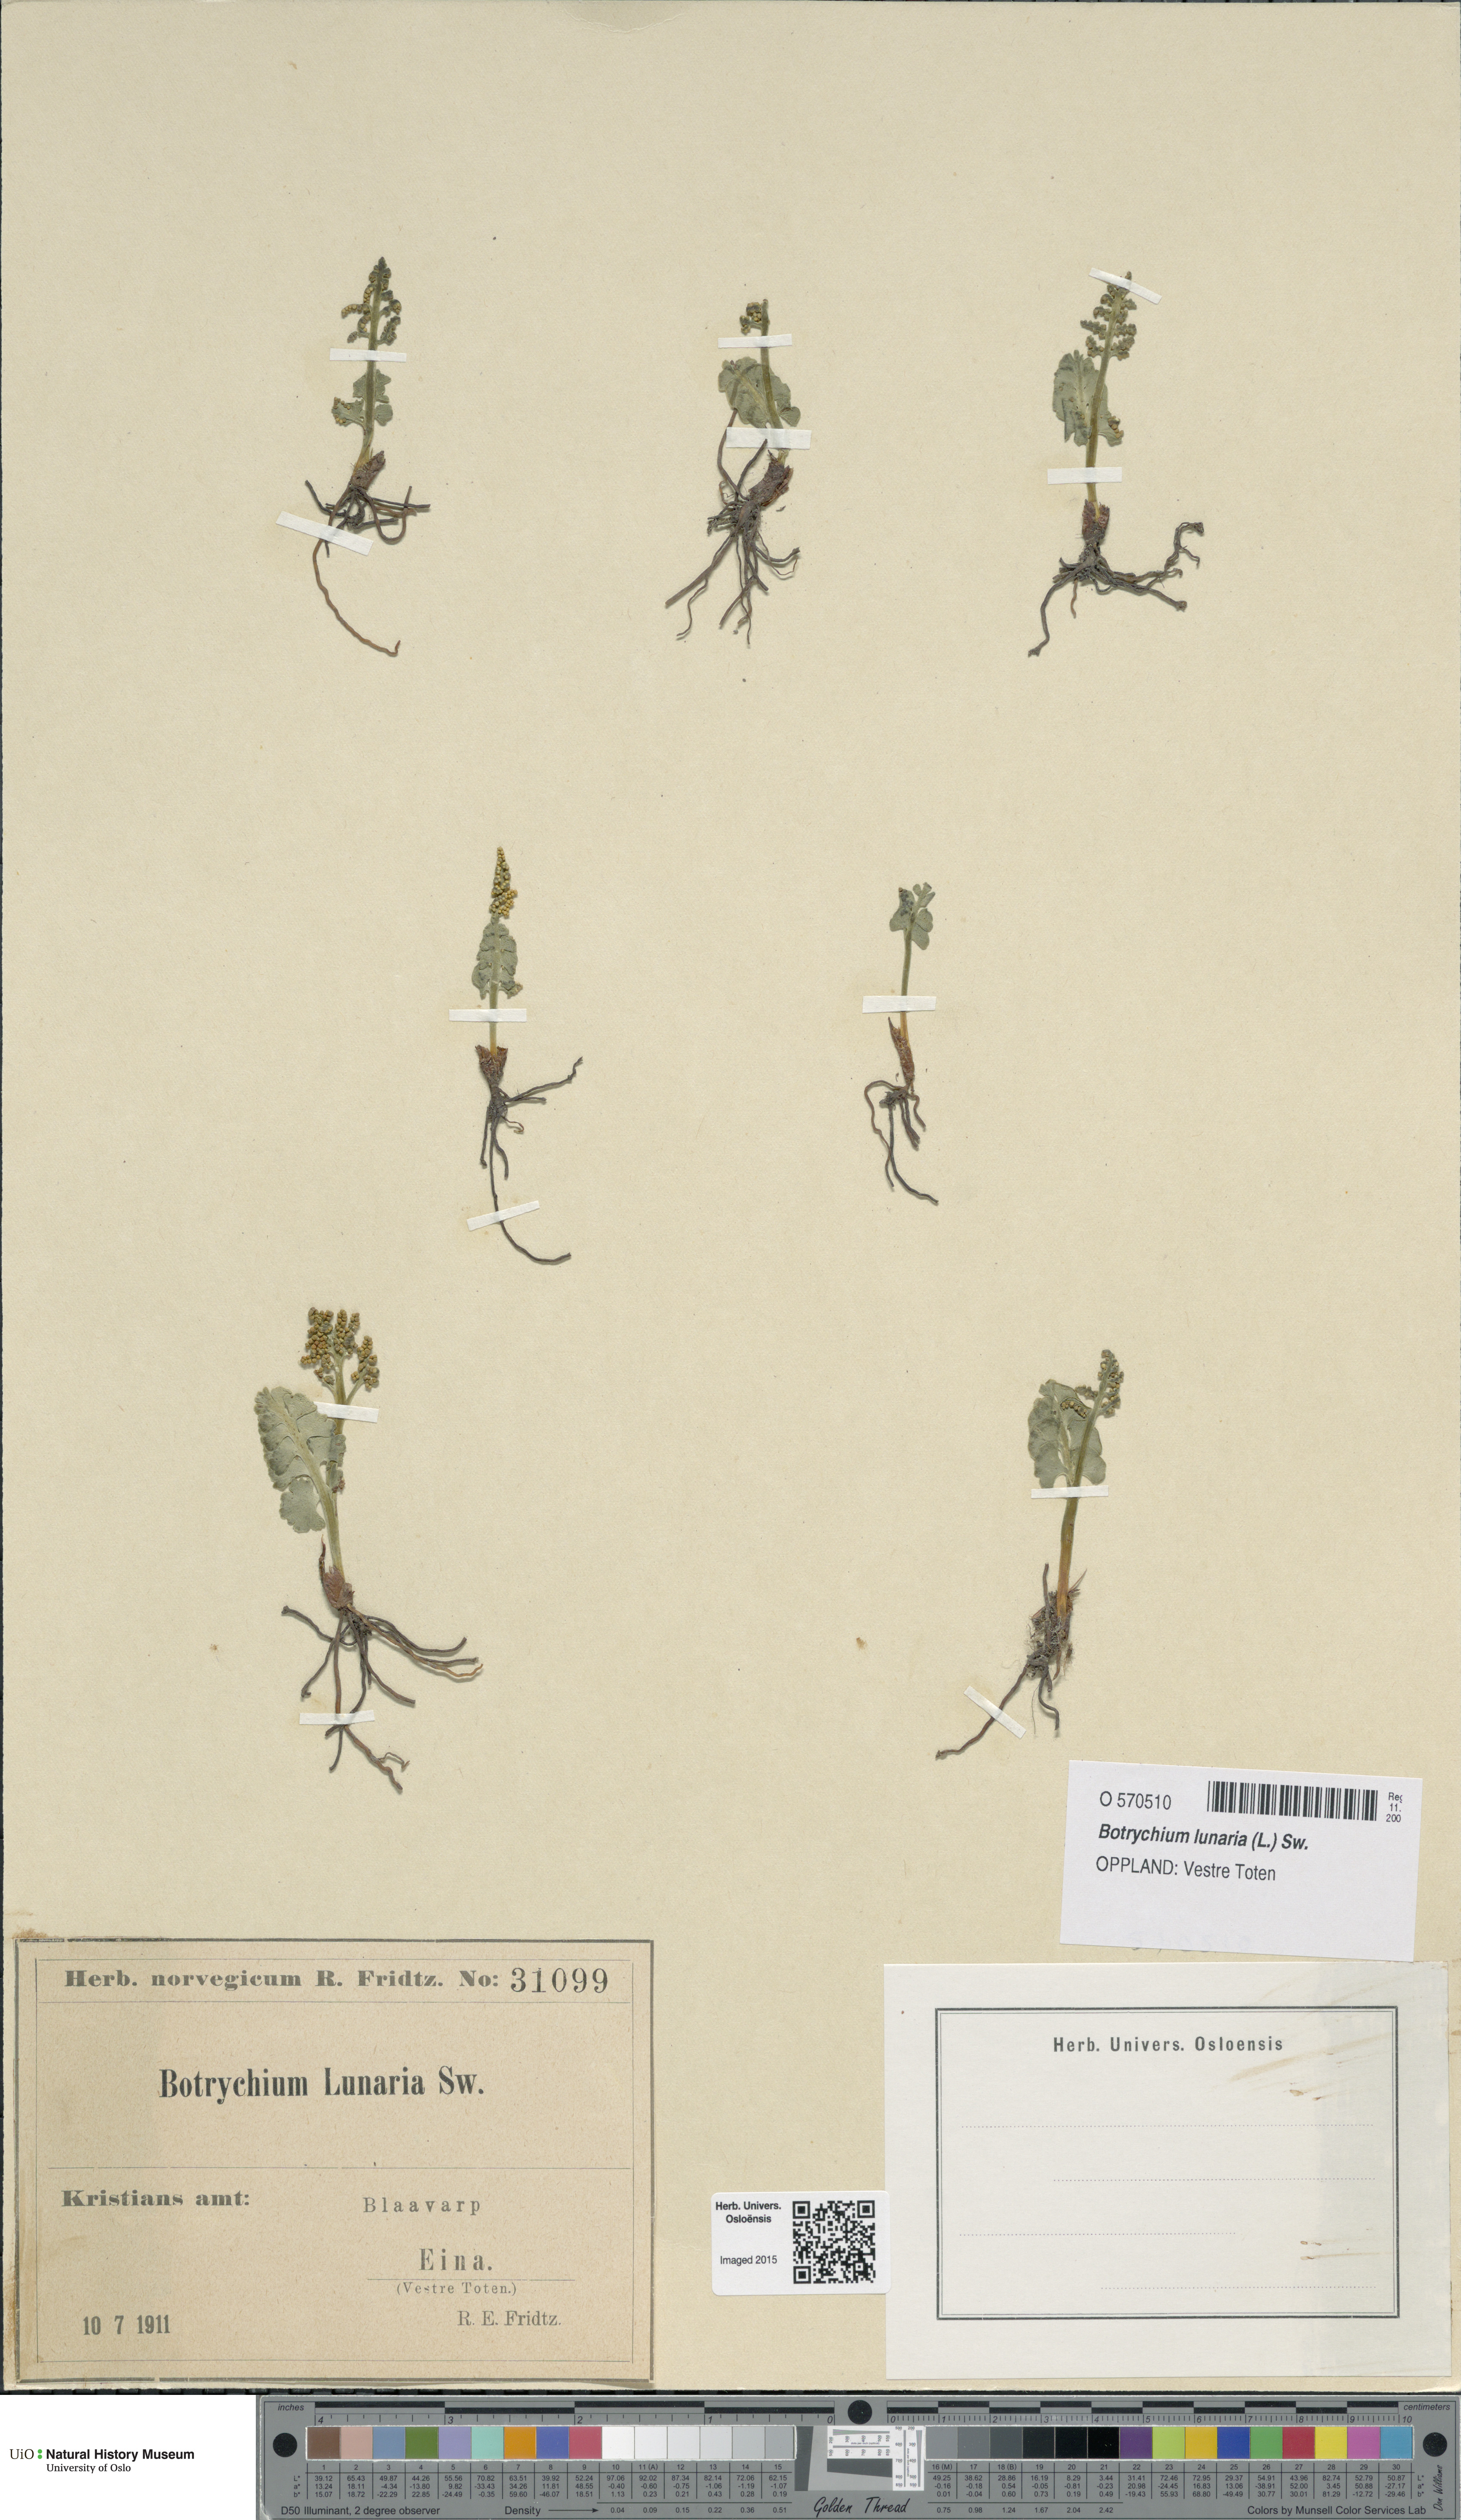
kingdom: Plantae
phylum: Tracheophyta
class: Polypodiopsida
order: Ophioglossales
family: Ophioglossaceae
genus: Botrychium
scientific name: Botrychium lunaria
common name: Moonwort
